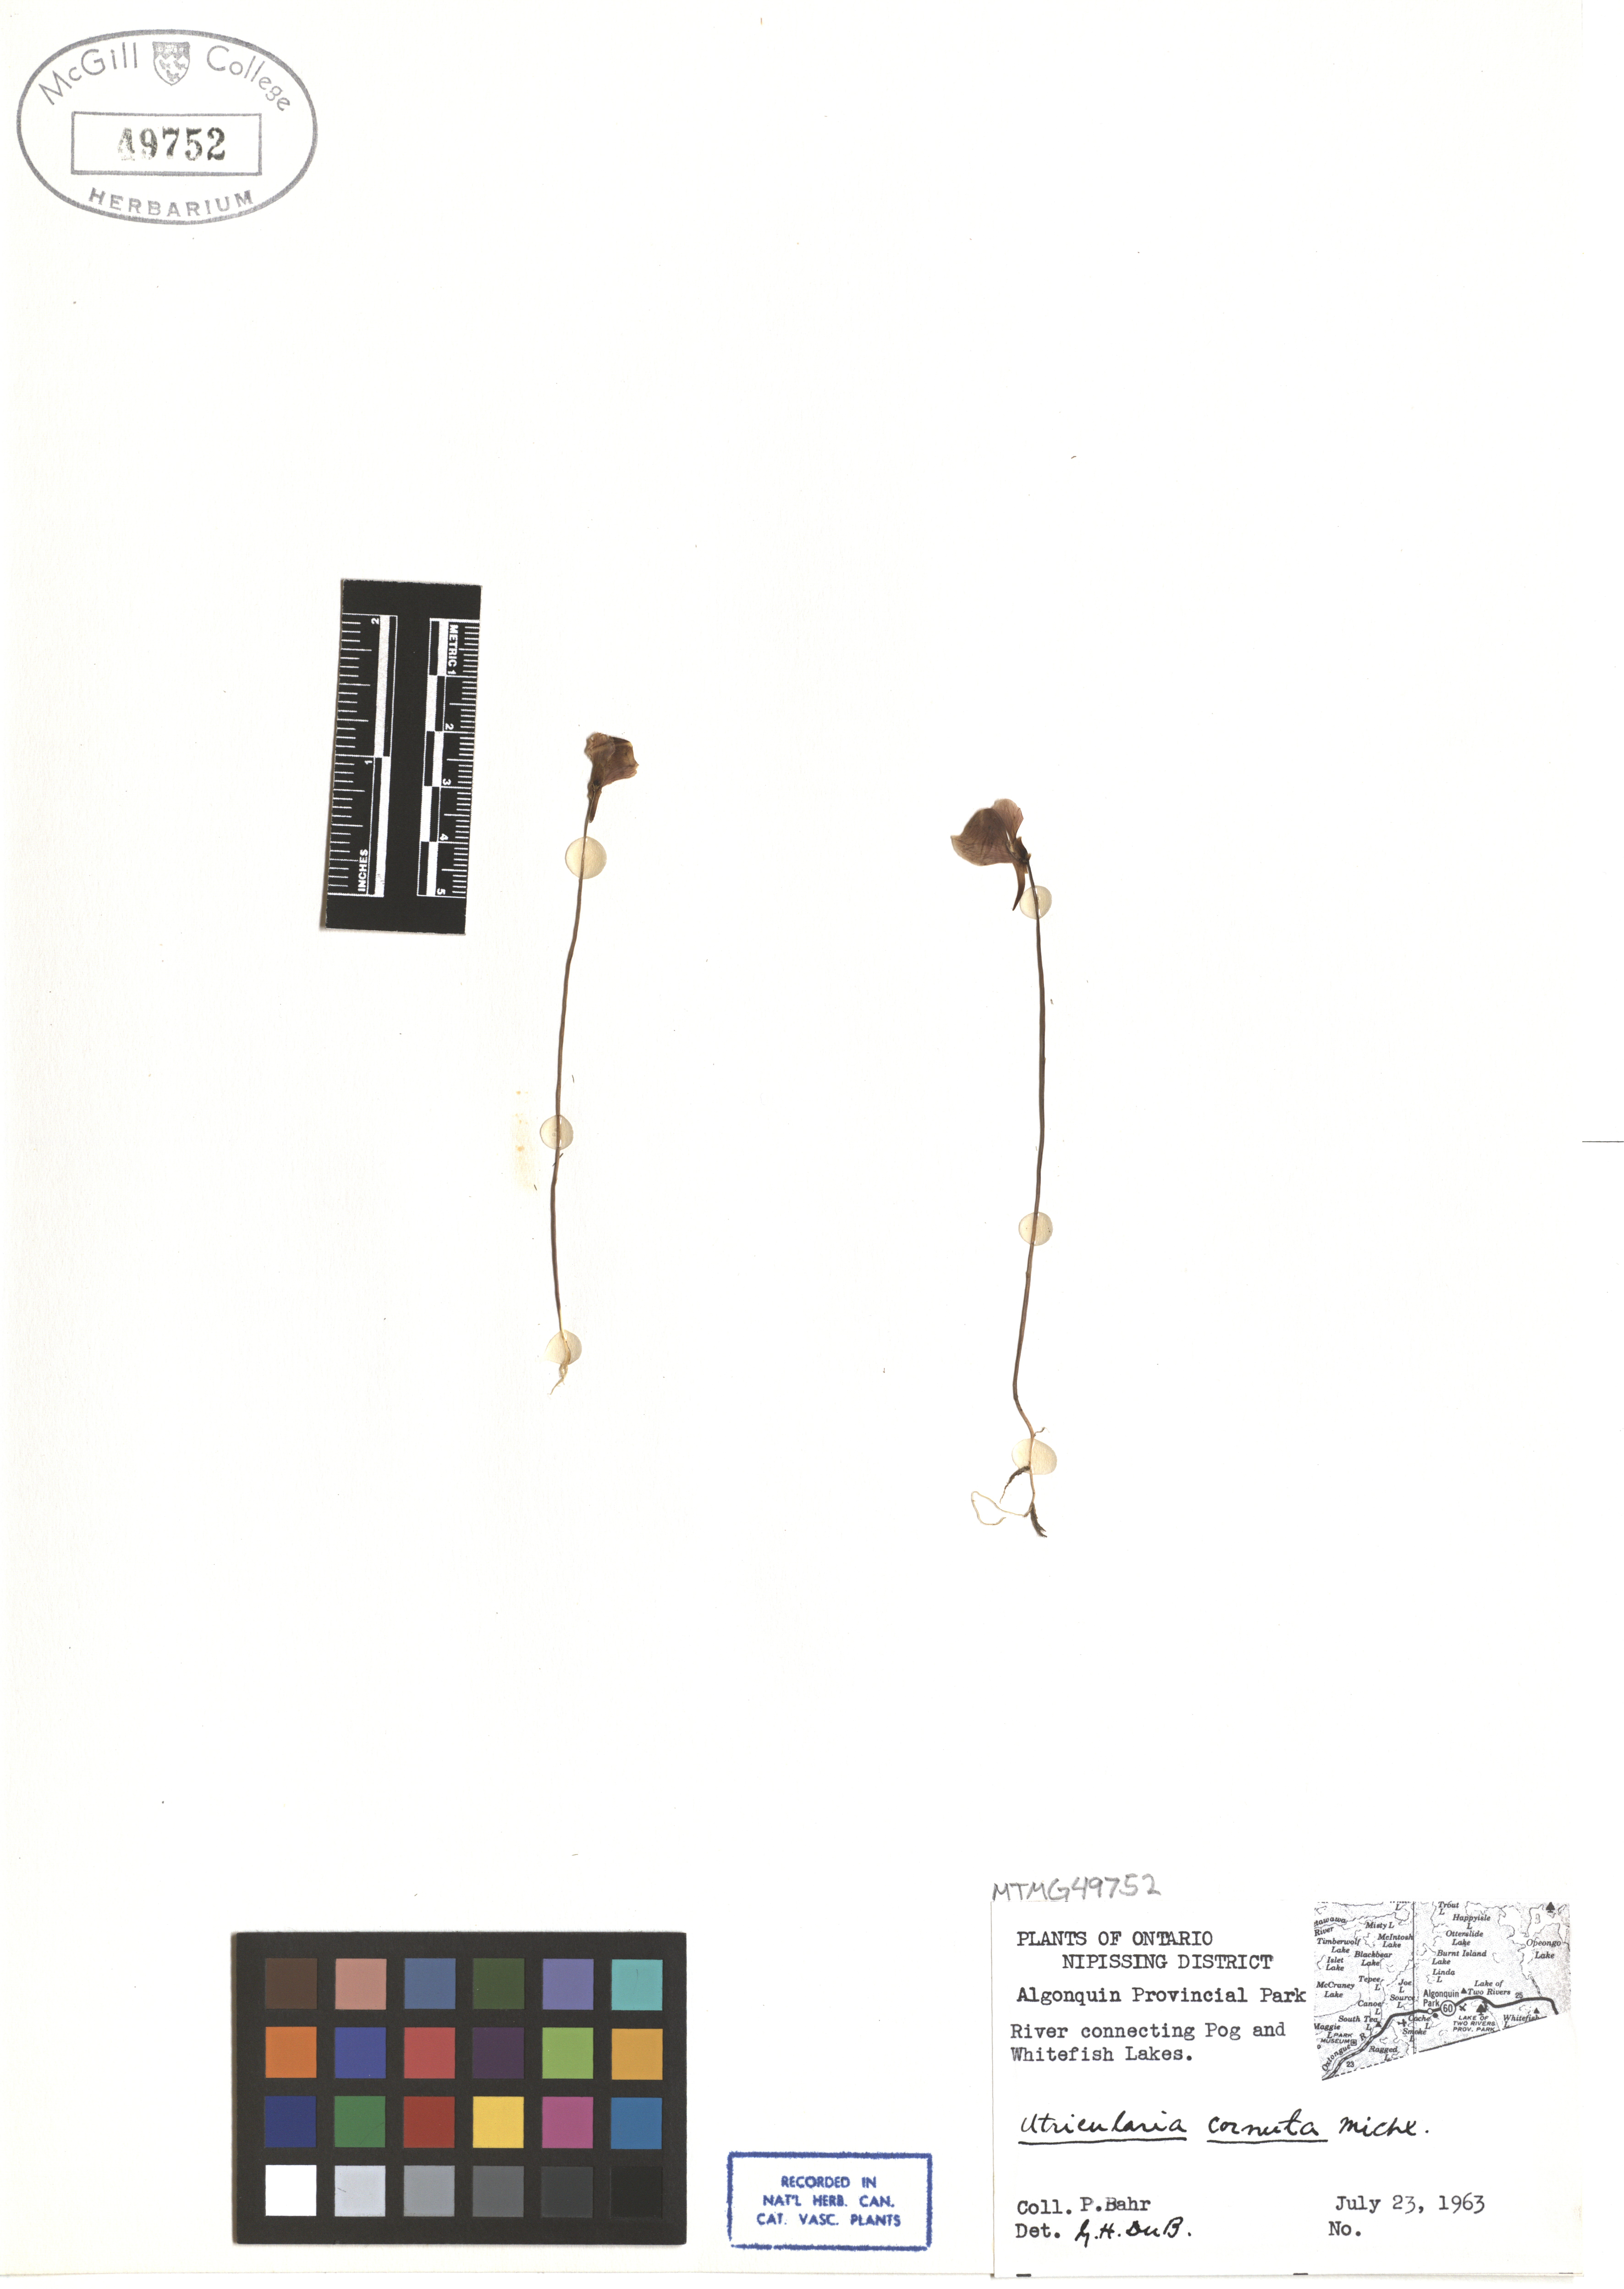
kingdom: Plantae
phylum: Tracheophyta
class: Magnoliopsida
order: Lamiales
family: Lentibulariaceae
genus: Utricularia
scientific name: Utricularia cornuta
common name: Horned bladderwort
